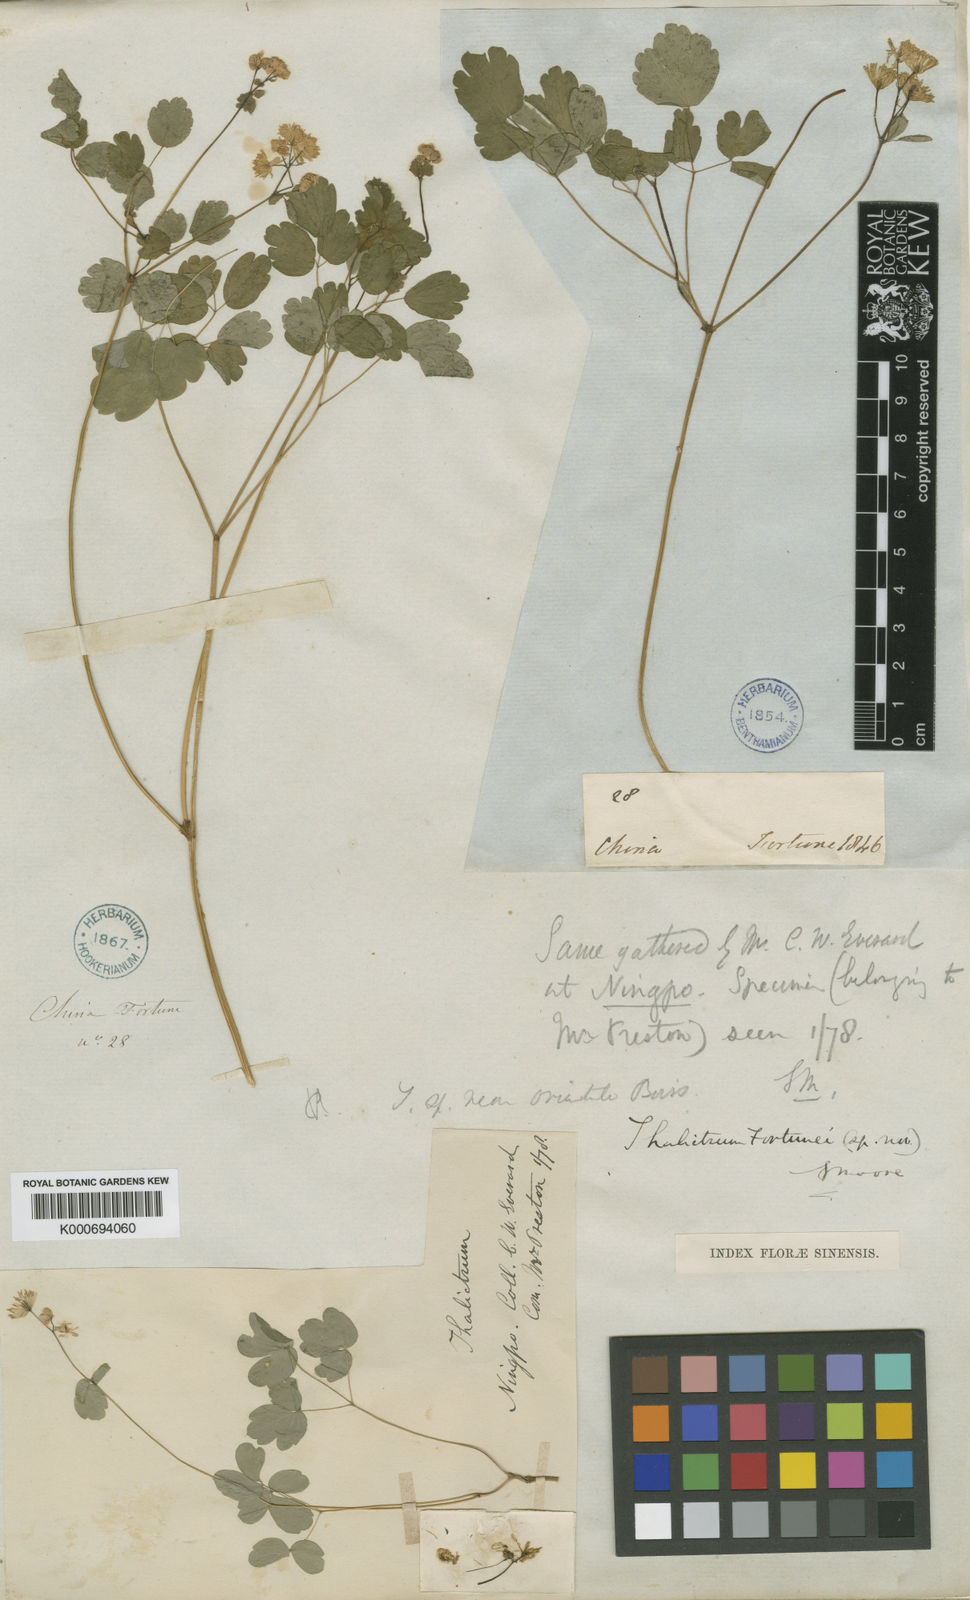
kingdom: Plantae
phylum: Tracheophyta
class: Magnoliopsida
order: Ranunculales
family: Ranunculaceae
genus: Thalictrum
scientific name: Thalictrum fortunei
